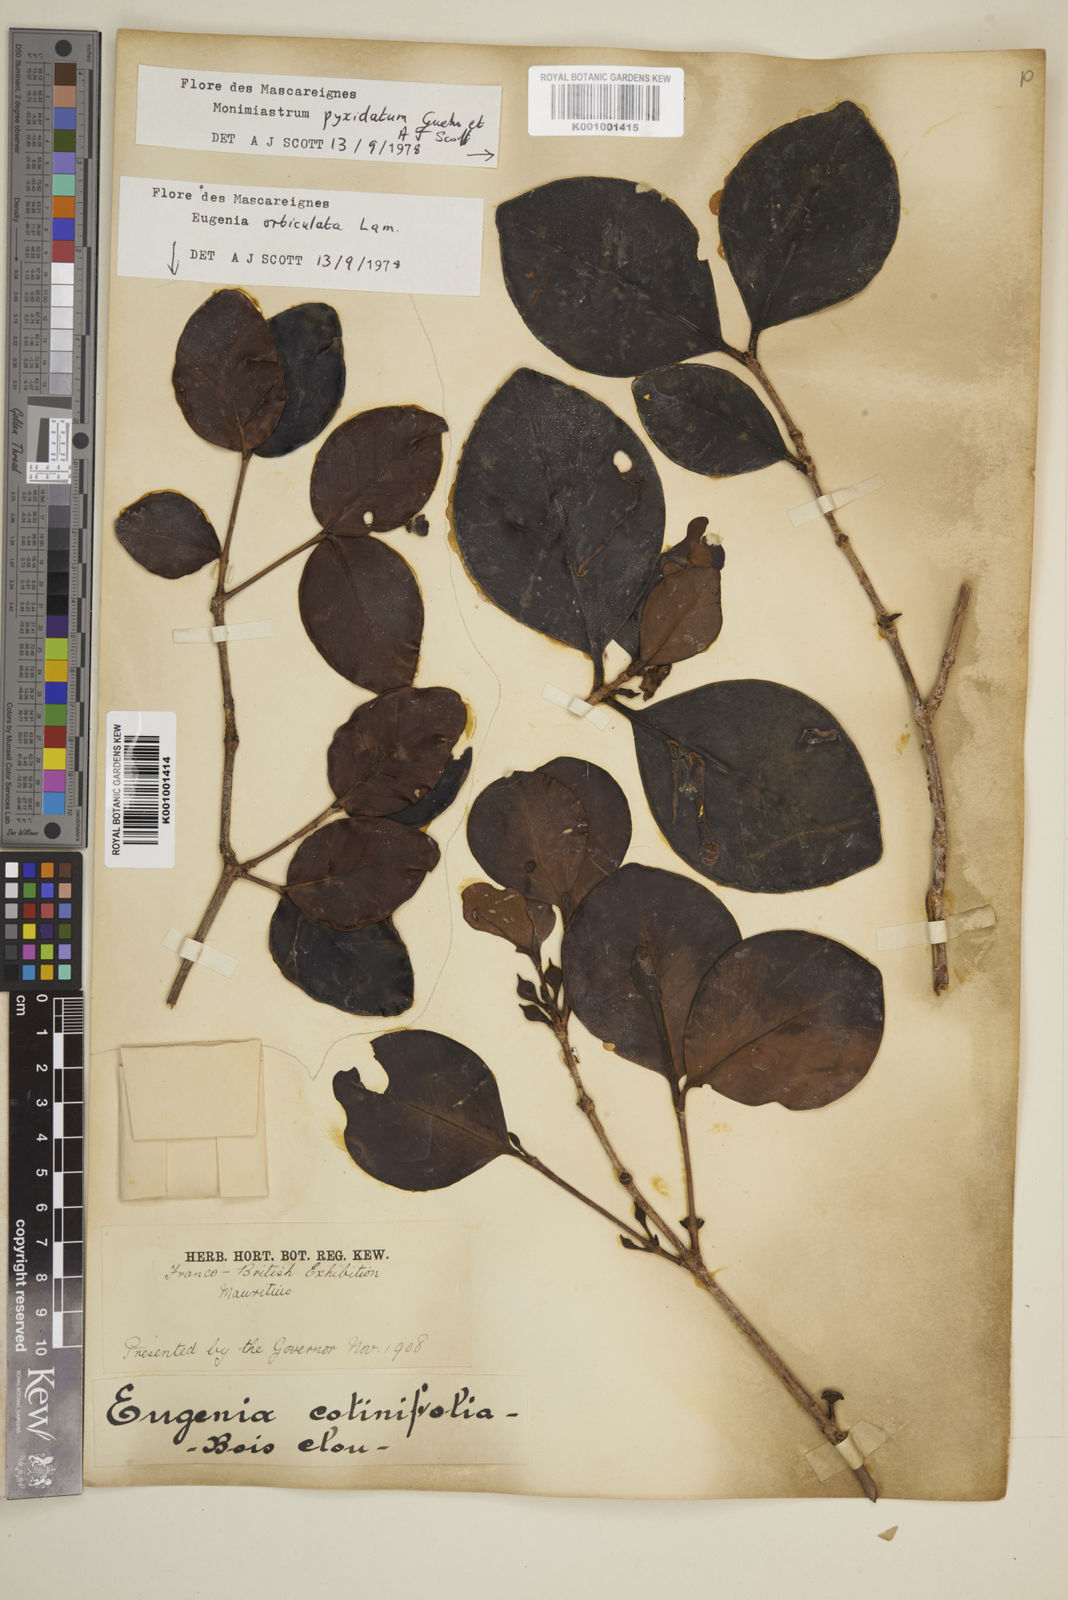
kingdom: Plantae
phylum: Tracheophyta
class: Magnoliopsida
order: Myrtales
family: Myrtaceae
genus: Eugenia
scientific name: Eugenia pyxidata
